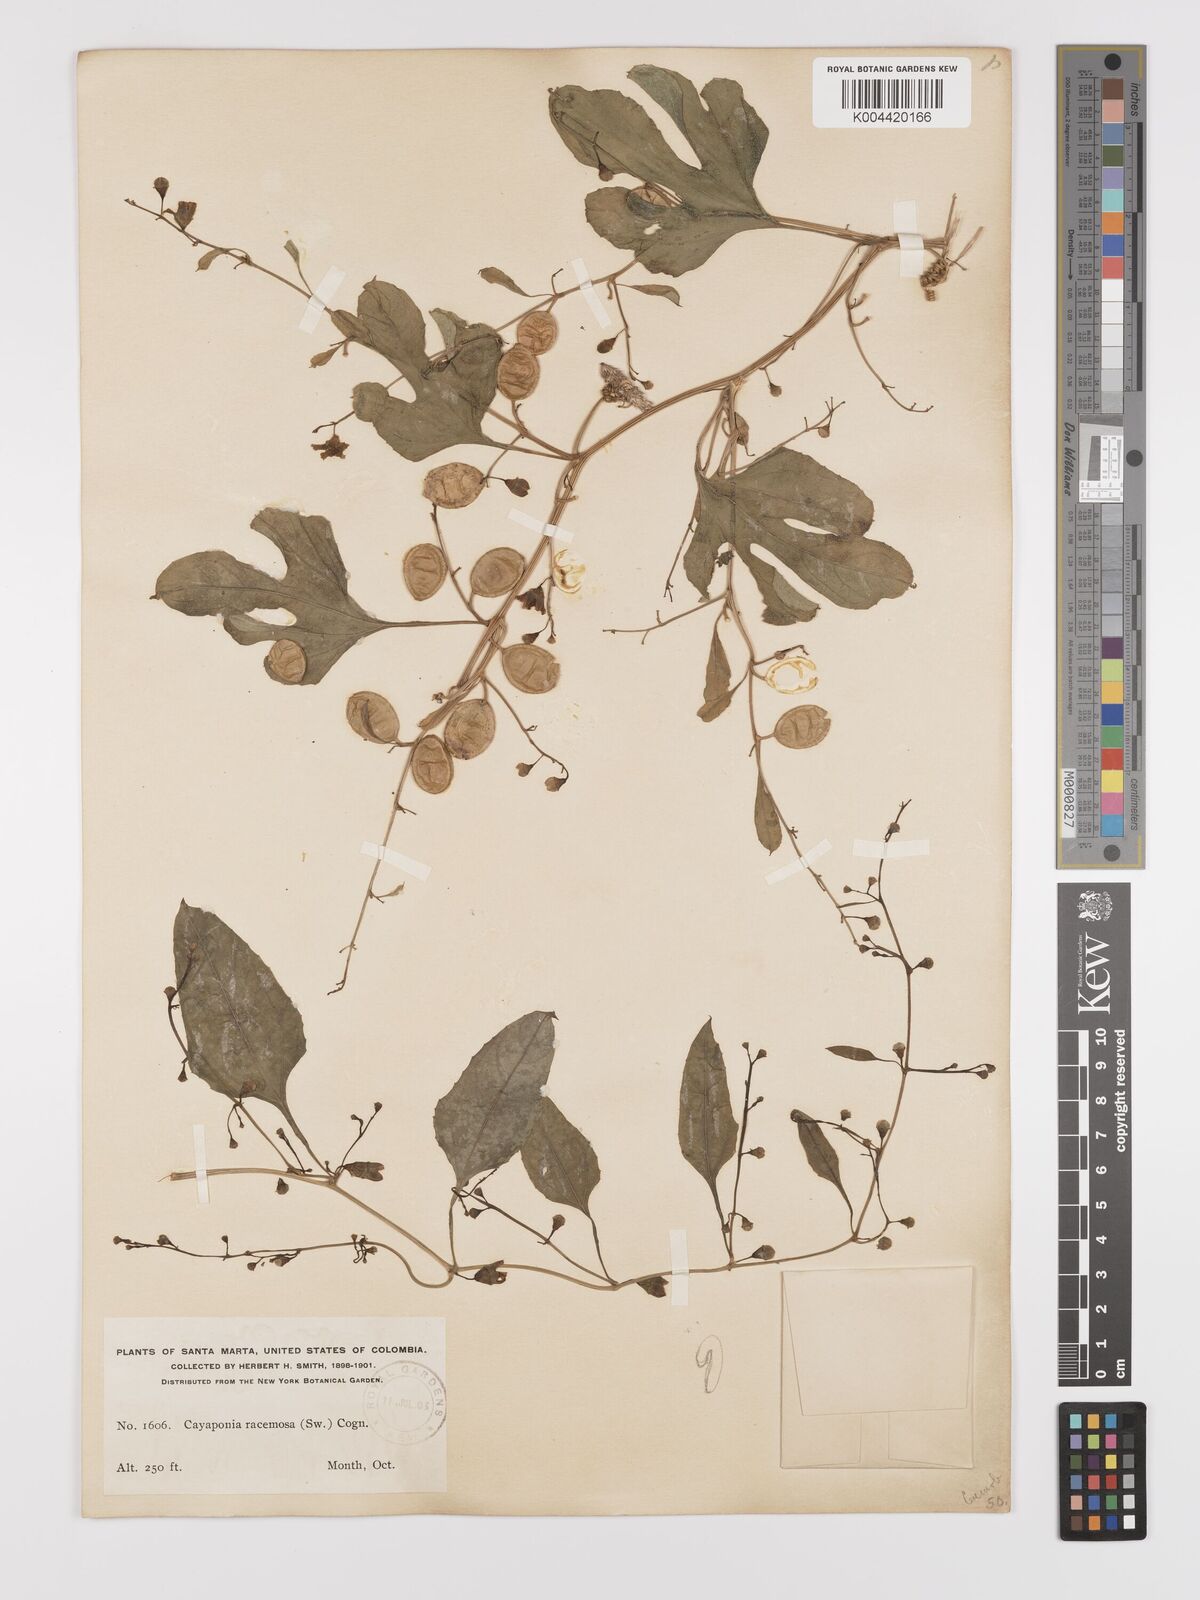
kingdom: Plantae
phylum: Tracheophyta
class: Magnoliopsida
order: Cucurbitales
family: Cucurbitaceae
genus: Cayaponia
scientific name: Cayaponia racemosa
